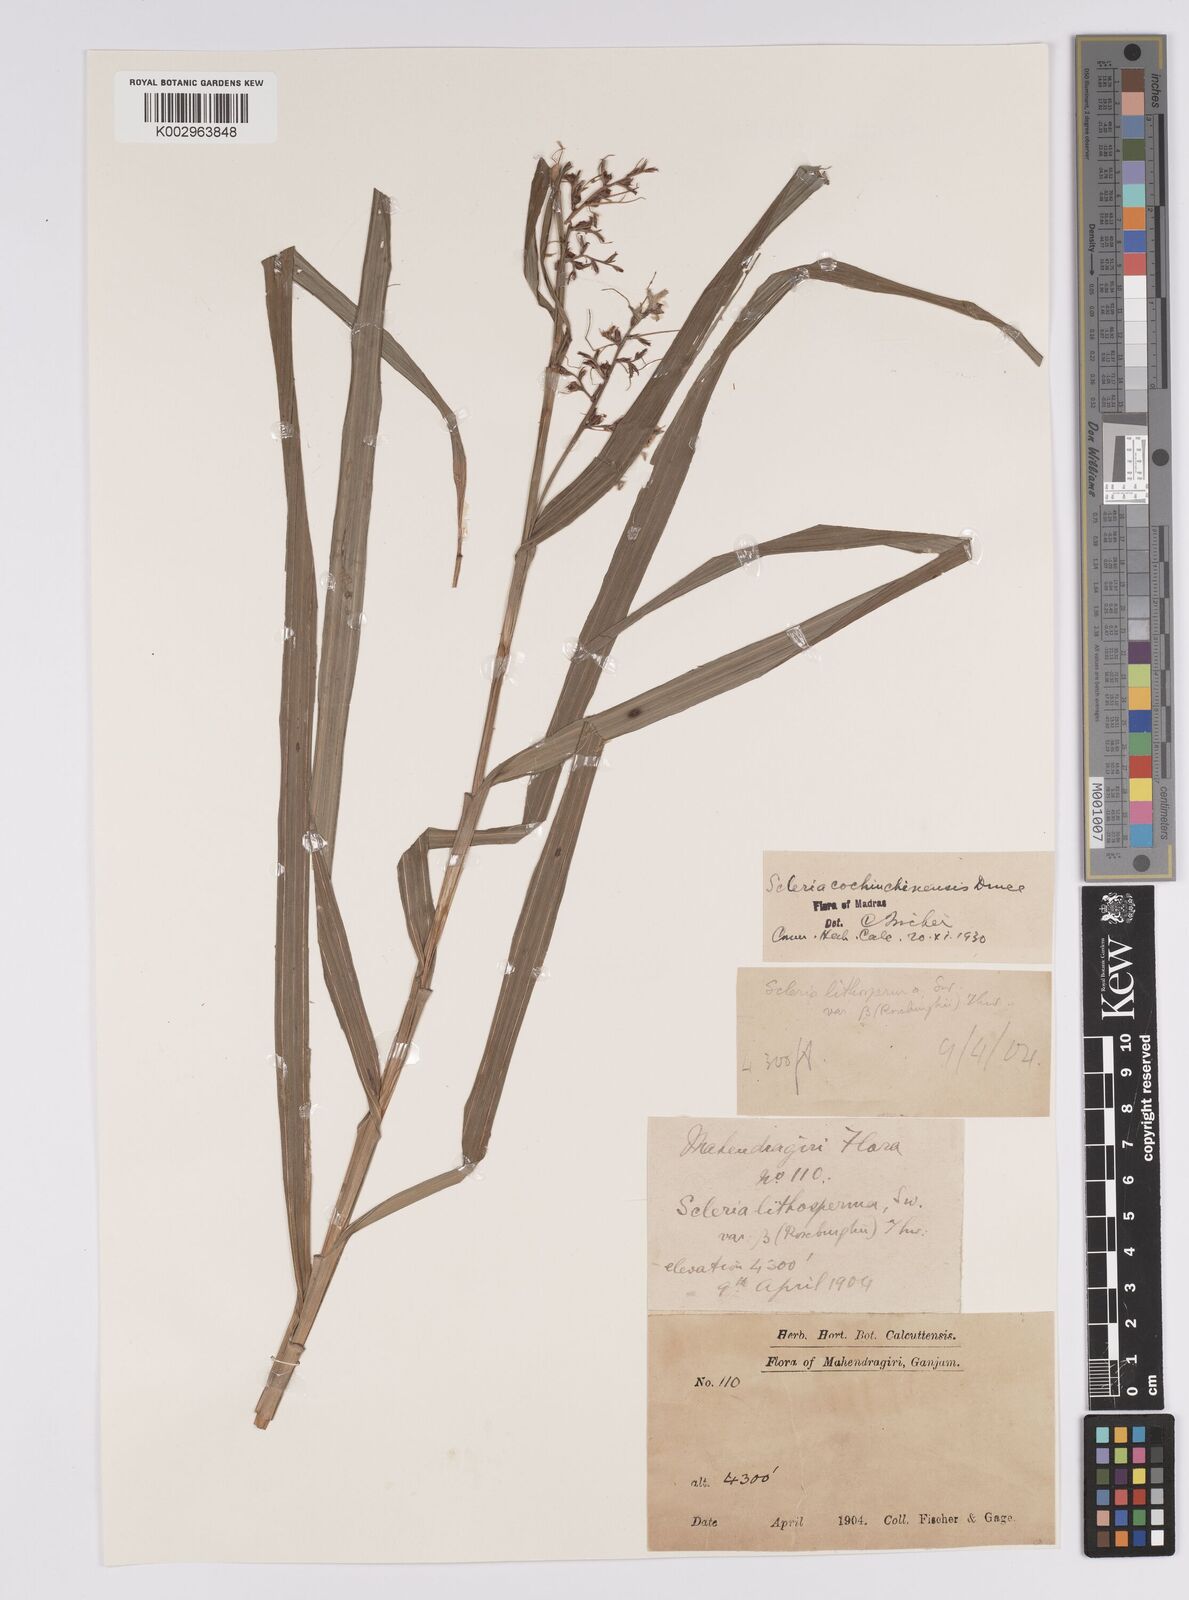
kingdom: Plantae
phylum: Tracheophyta
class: Liliopsida
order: Poales
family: Cyperaceae
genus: Scleria
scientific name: Scleria terrestris
